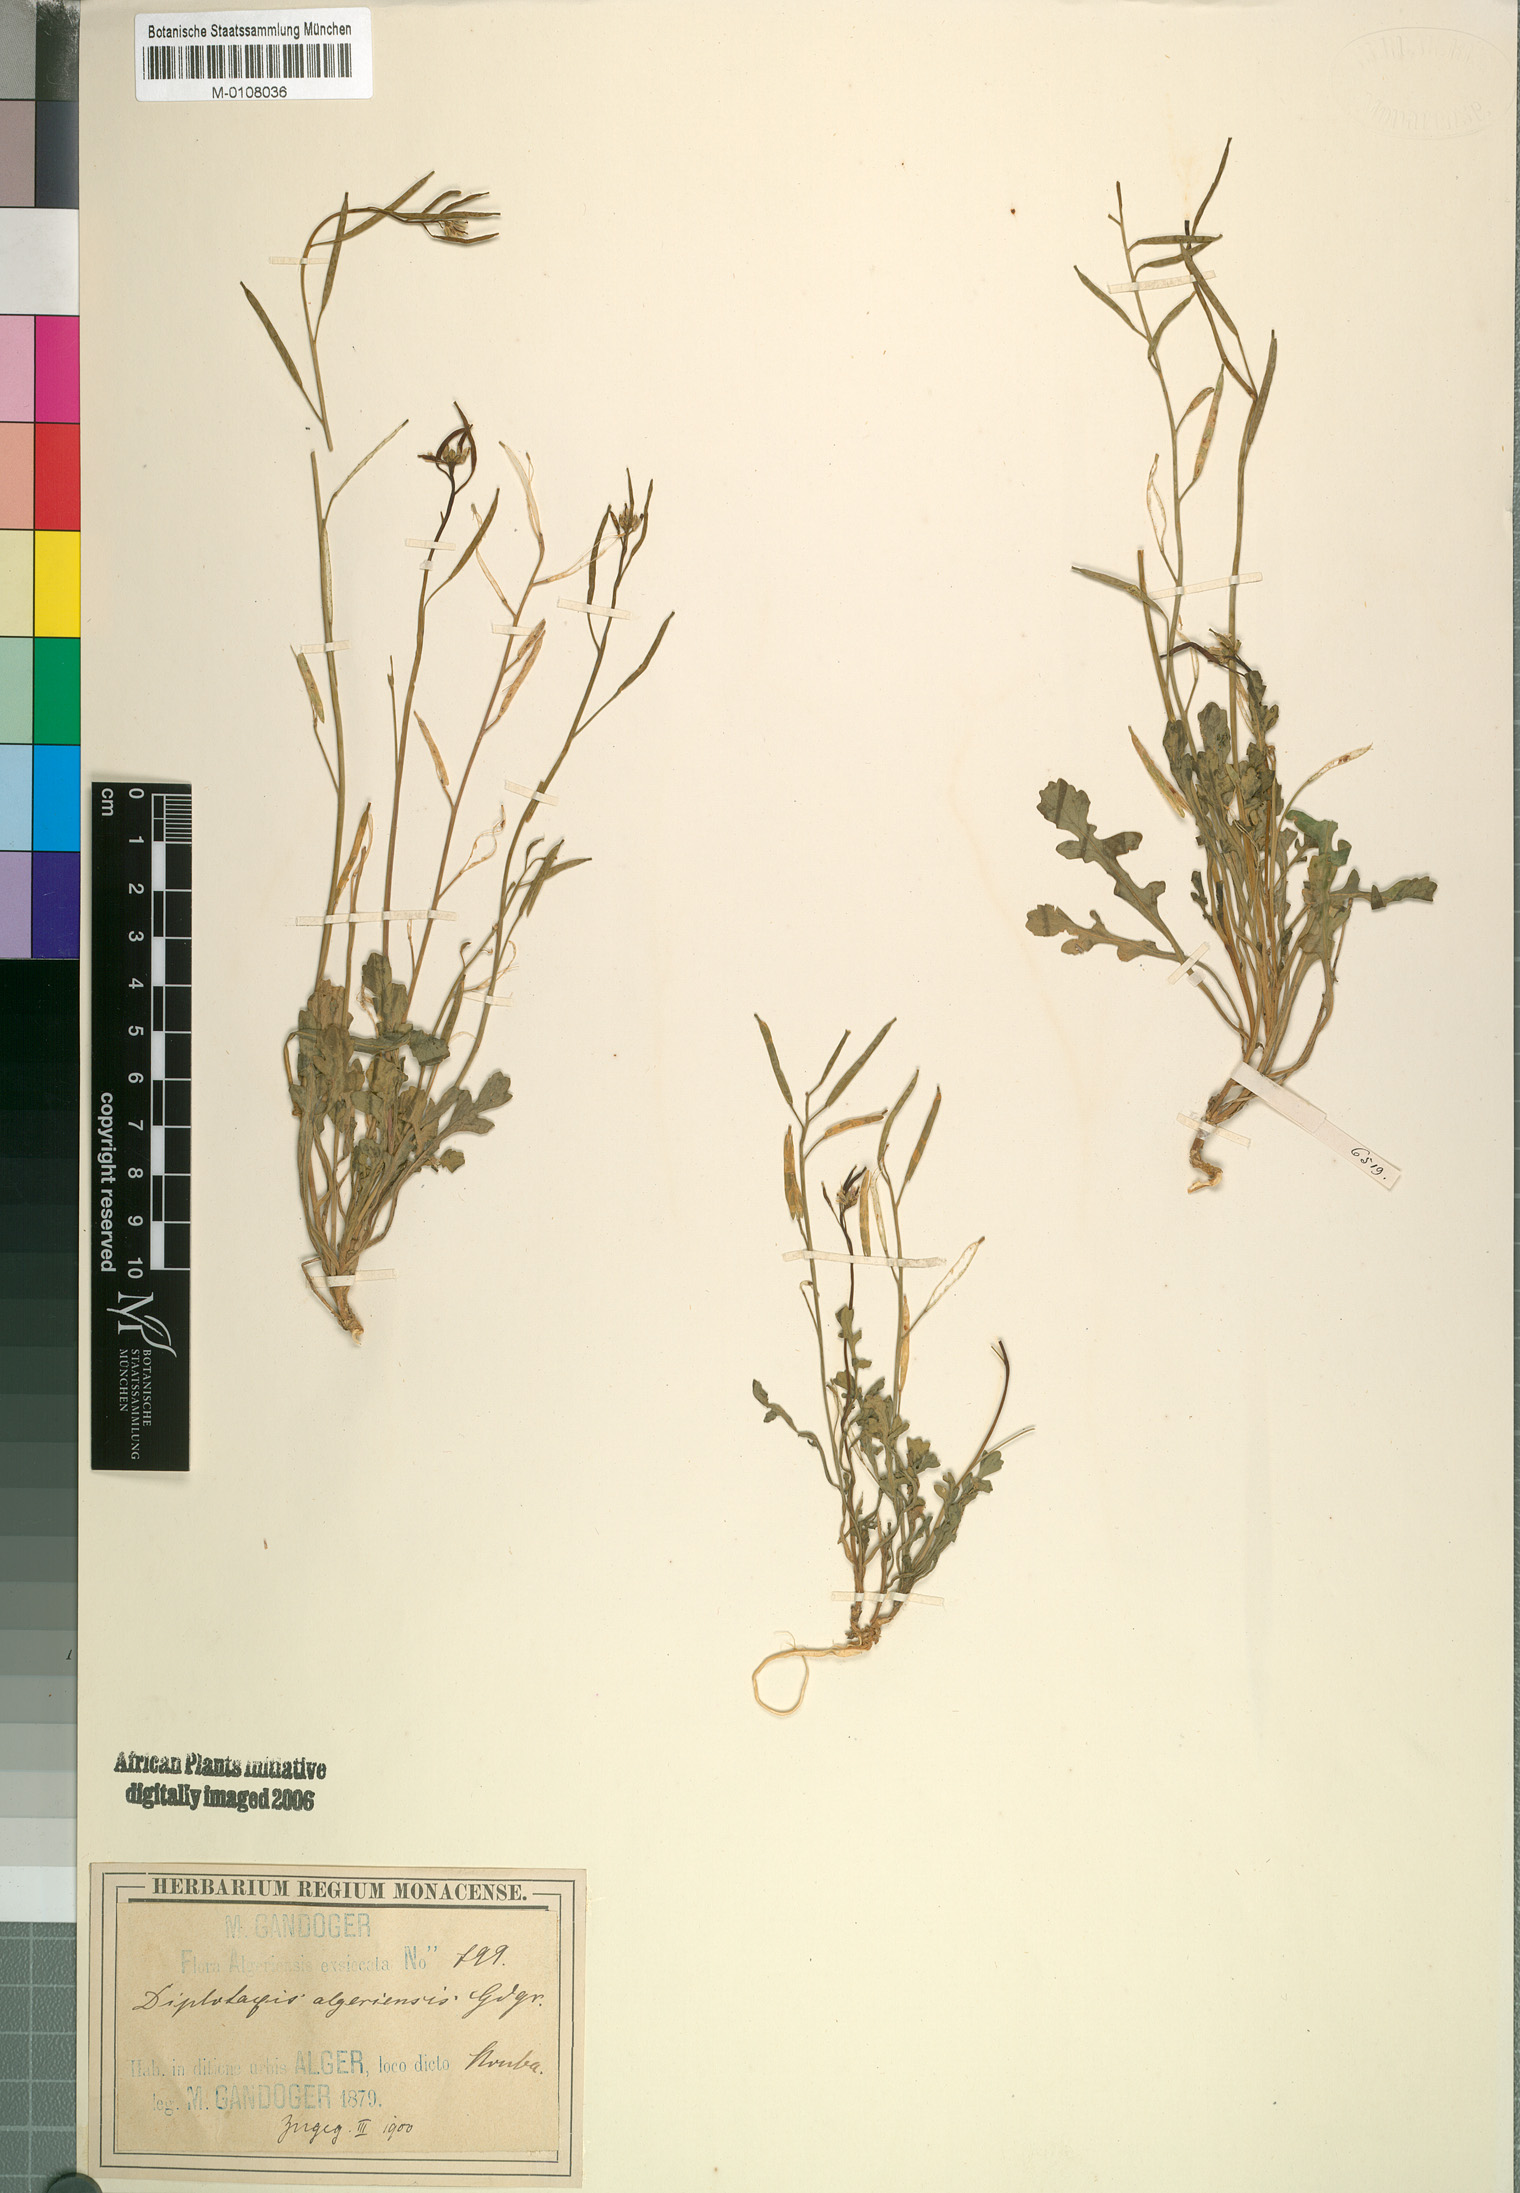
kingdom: Plantae
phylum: Tracheophyta
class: Magnoliopsida
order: Brassicales
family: Brassicaceae
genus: Diplotaxis
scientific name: Diplotaxis
